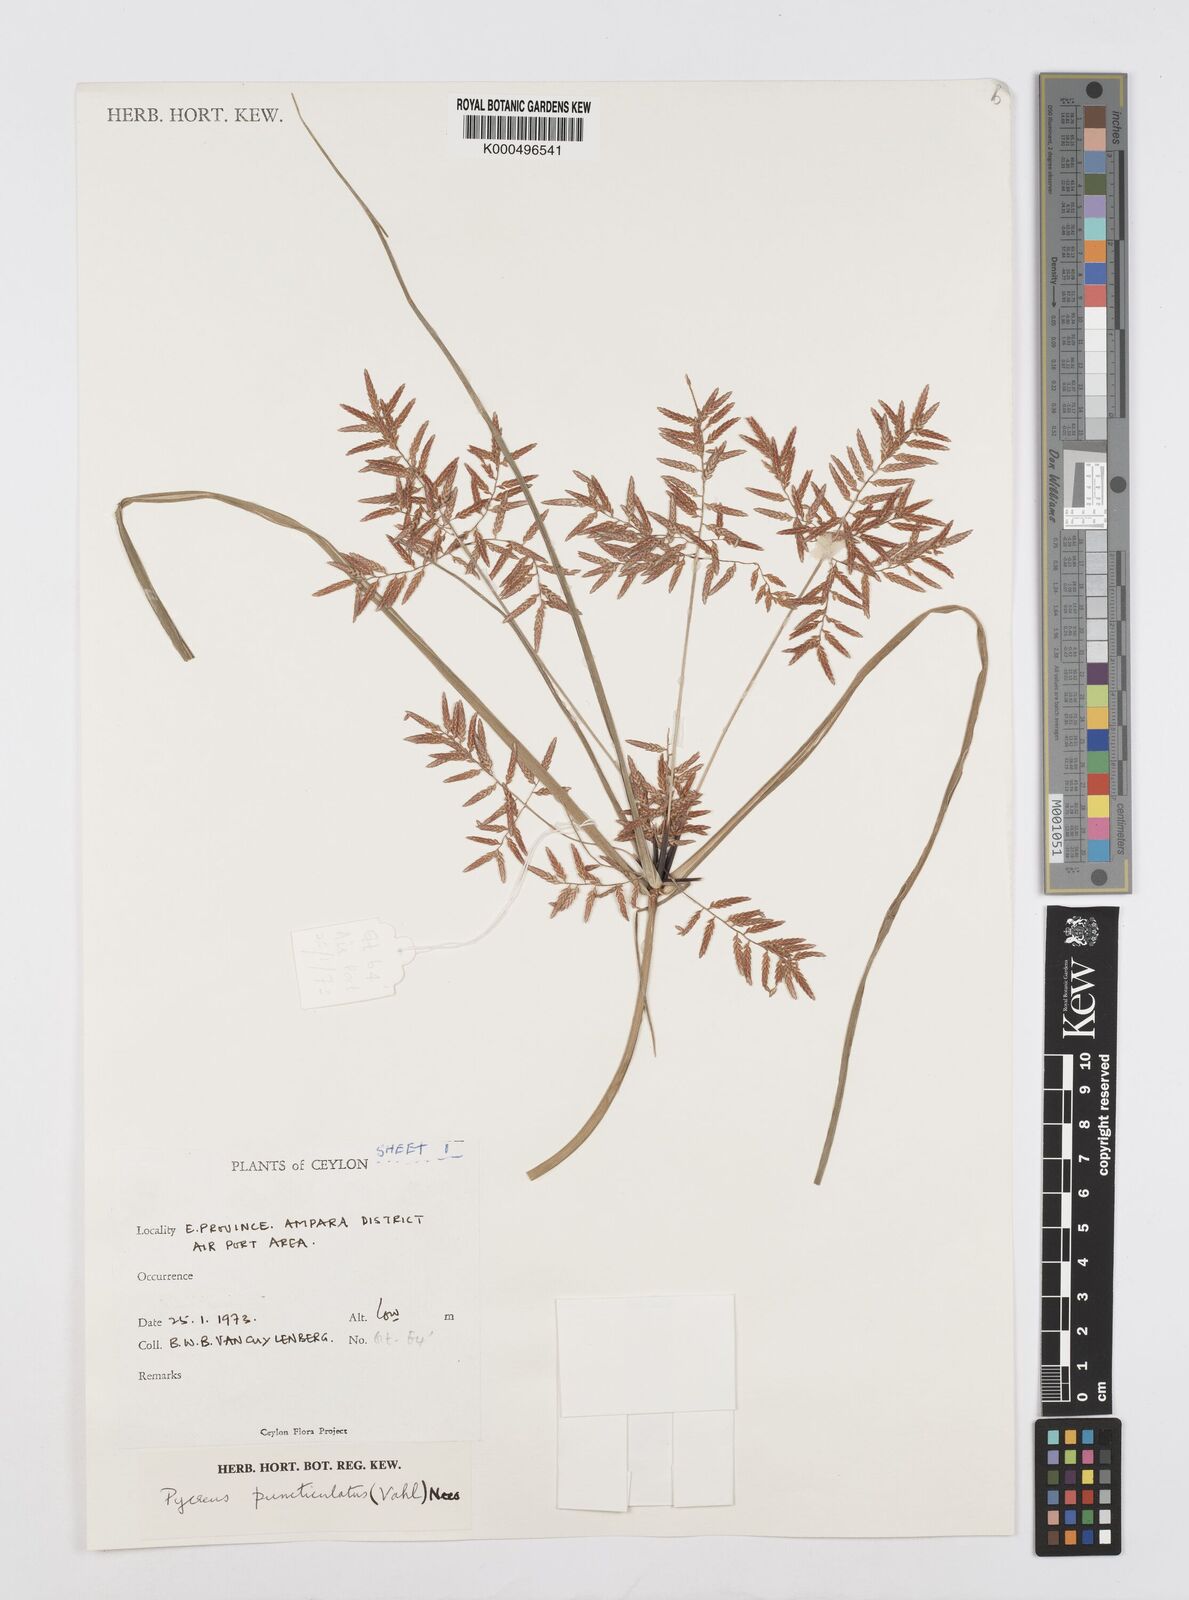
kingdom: Plantae
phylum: Tracheophyta
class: Liliopsida
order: Poales
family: Cyperaceae
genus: Cyperus
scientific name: Cyperus puncticulatus
